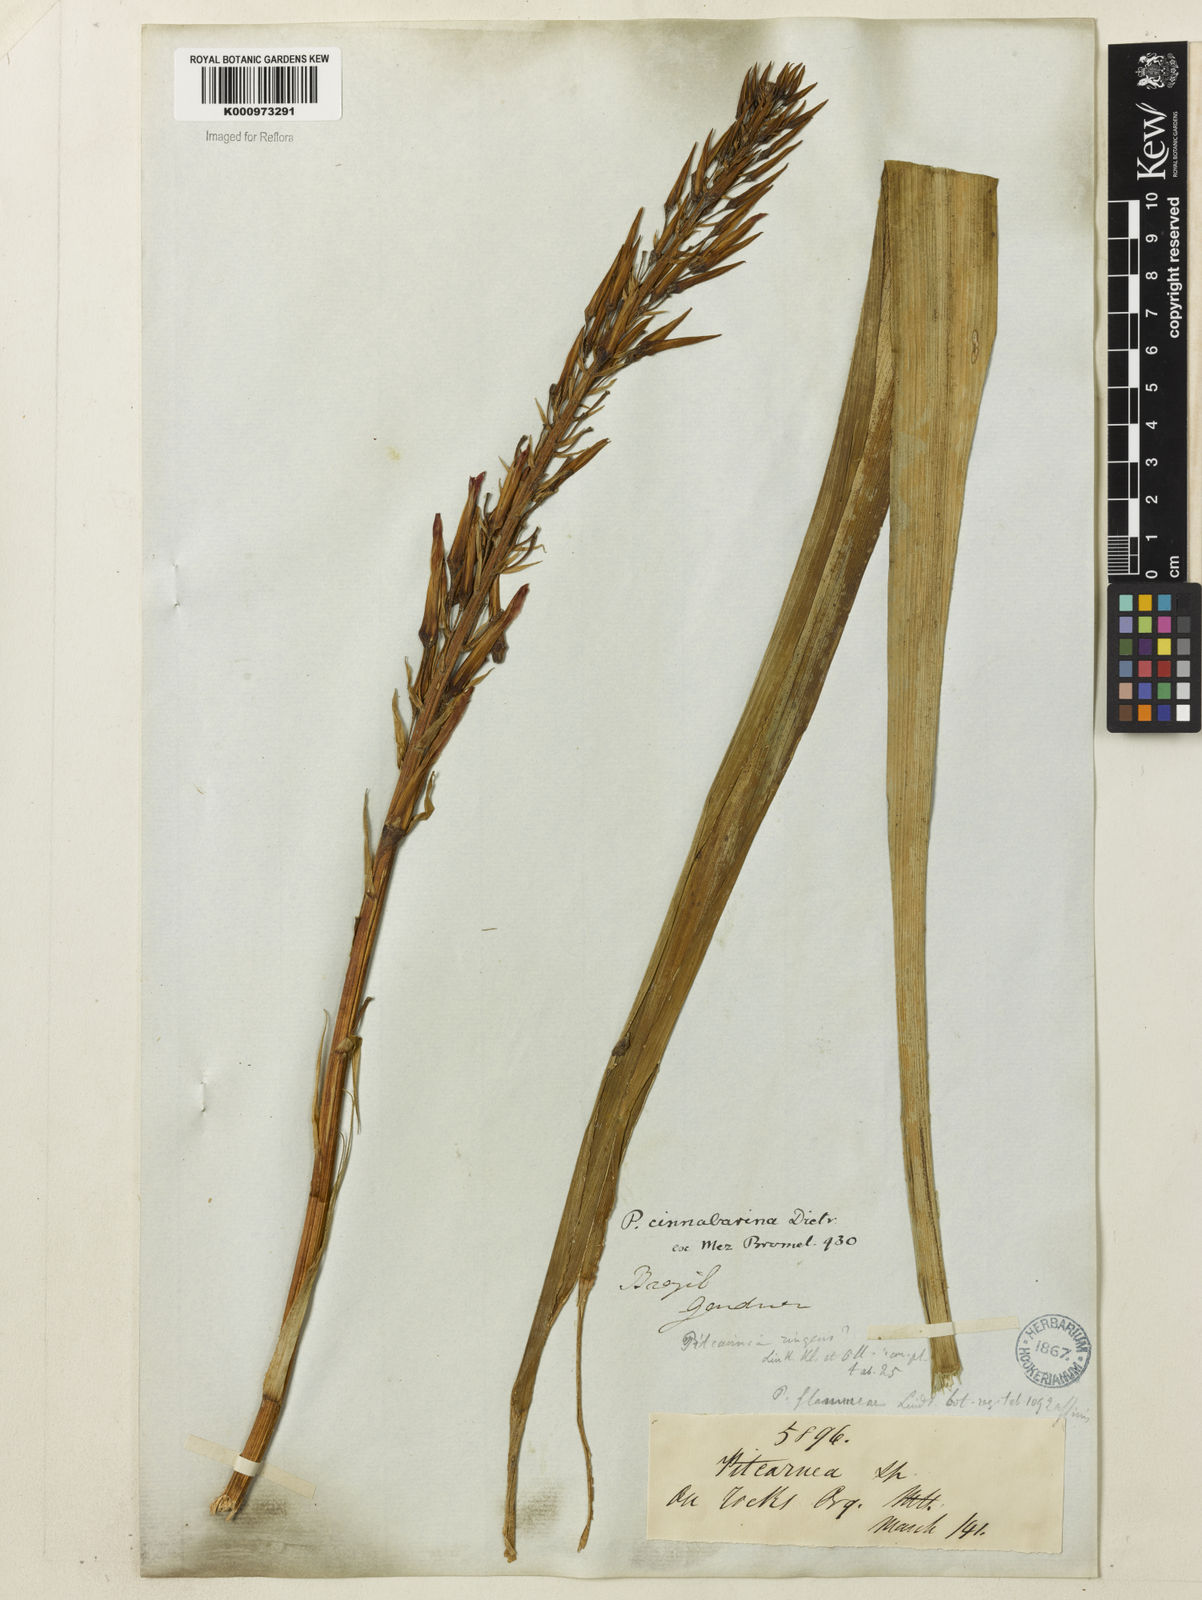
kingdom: Plantae
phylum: Tracheophyta
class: Liliopsida
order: Poales
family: Bromeliaceae
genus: Pitcairnia
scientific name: Pitcairnia flammea
